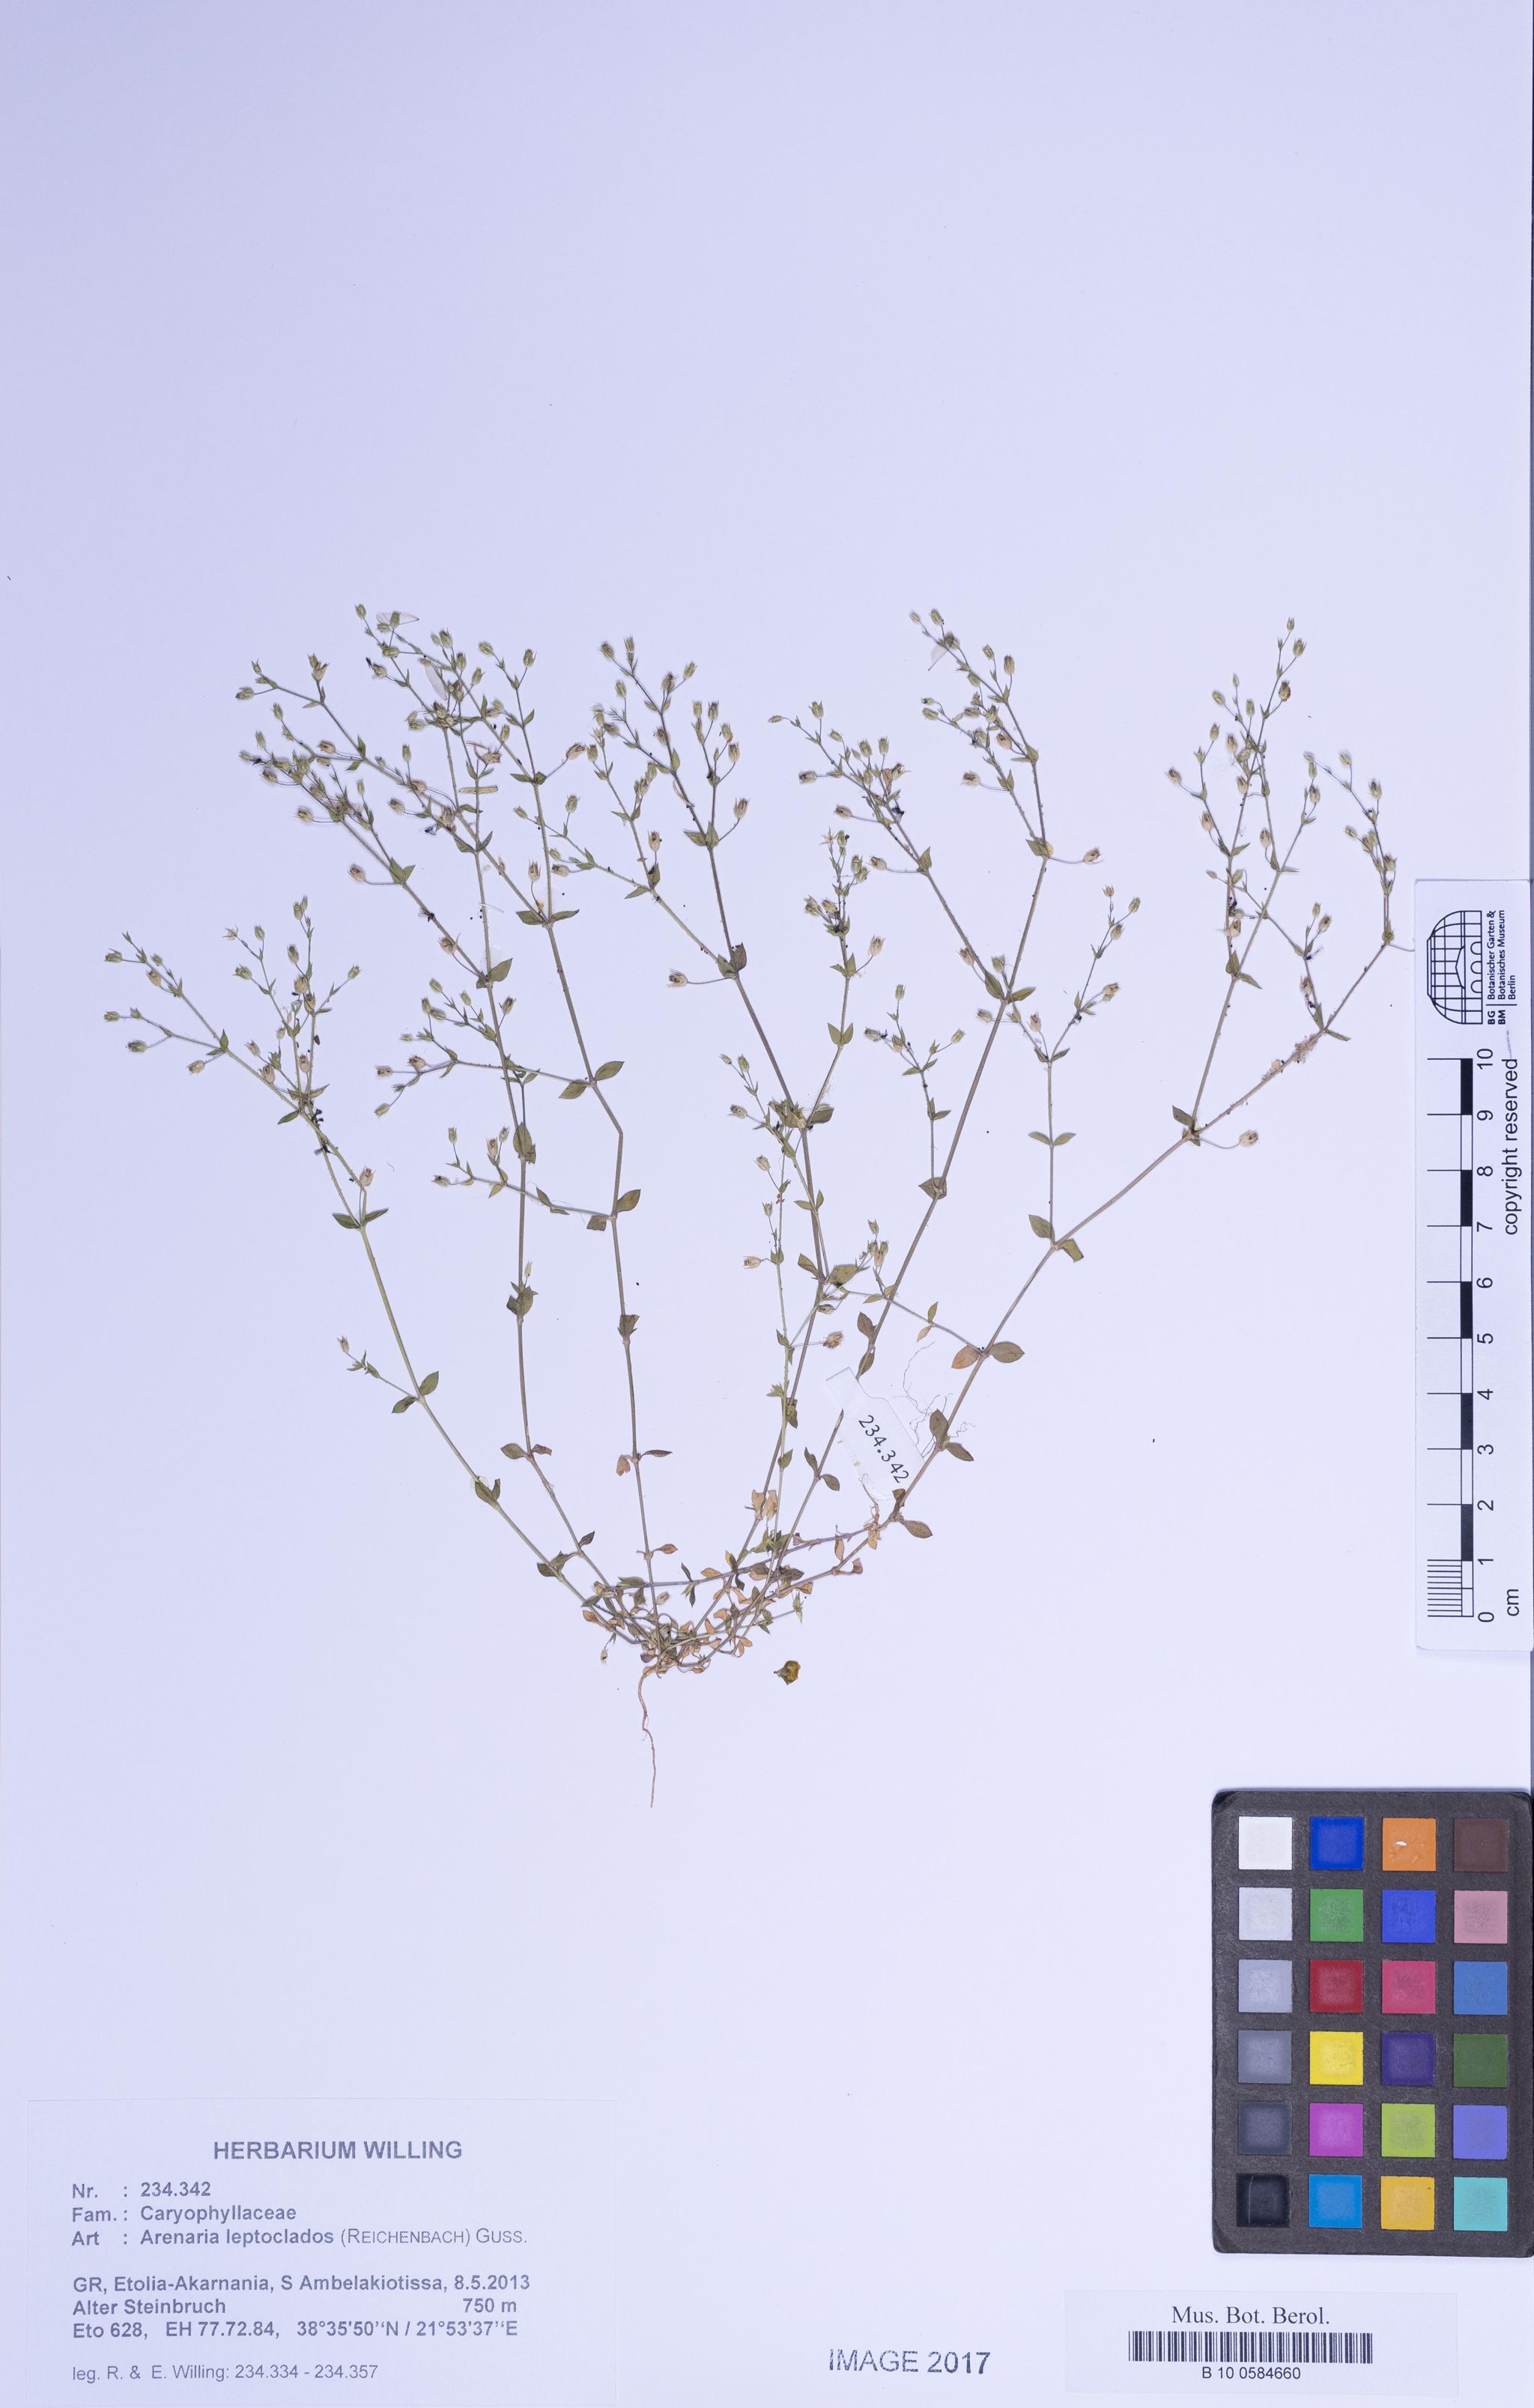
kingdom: Plantae
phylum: Tracheophyta
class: Magnoliopsida
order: Caryophyllales
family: Caryophyllaceae
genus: Arenaria
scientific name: Arenaria leptoclados
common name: Thyme-leaved sandwort
